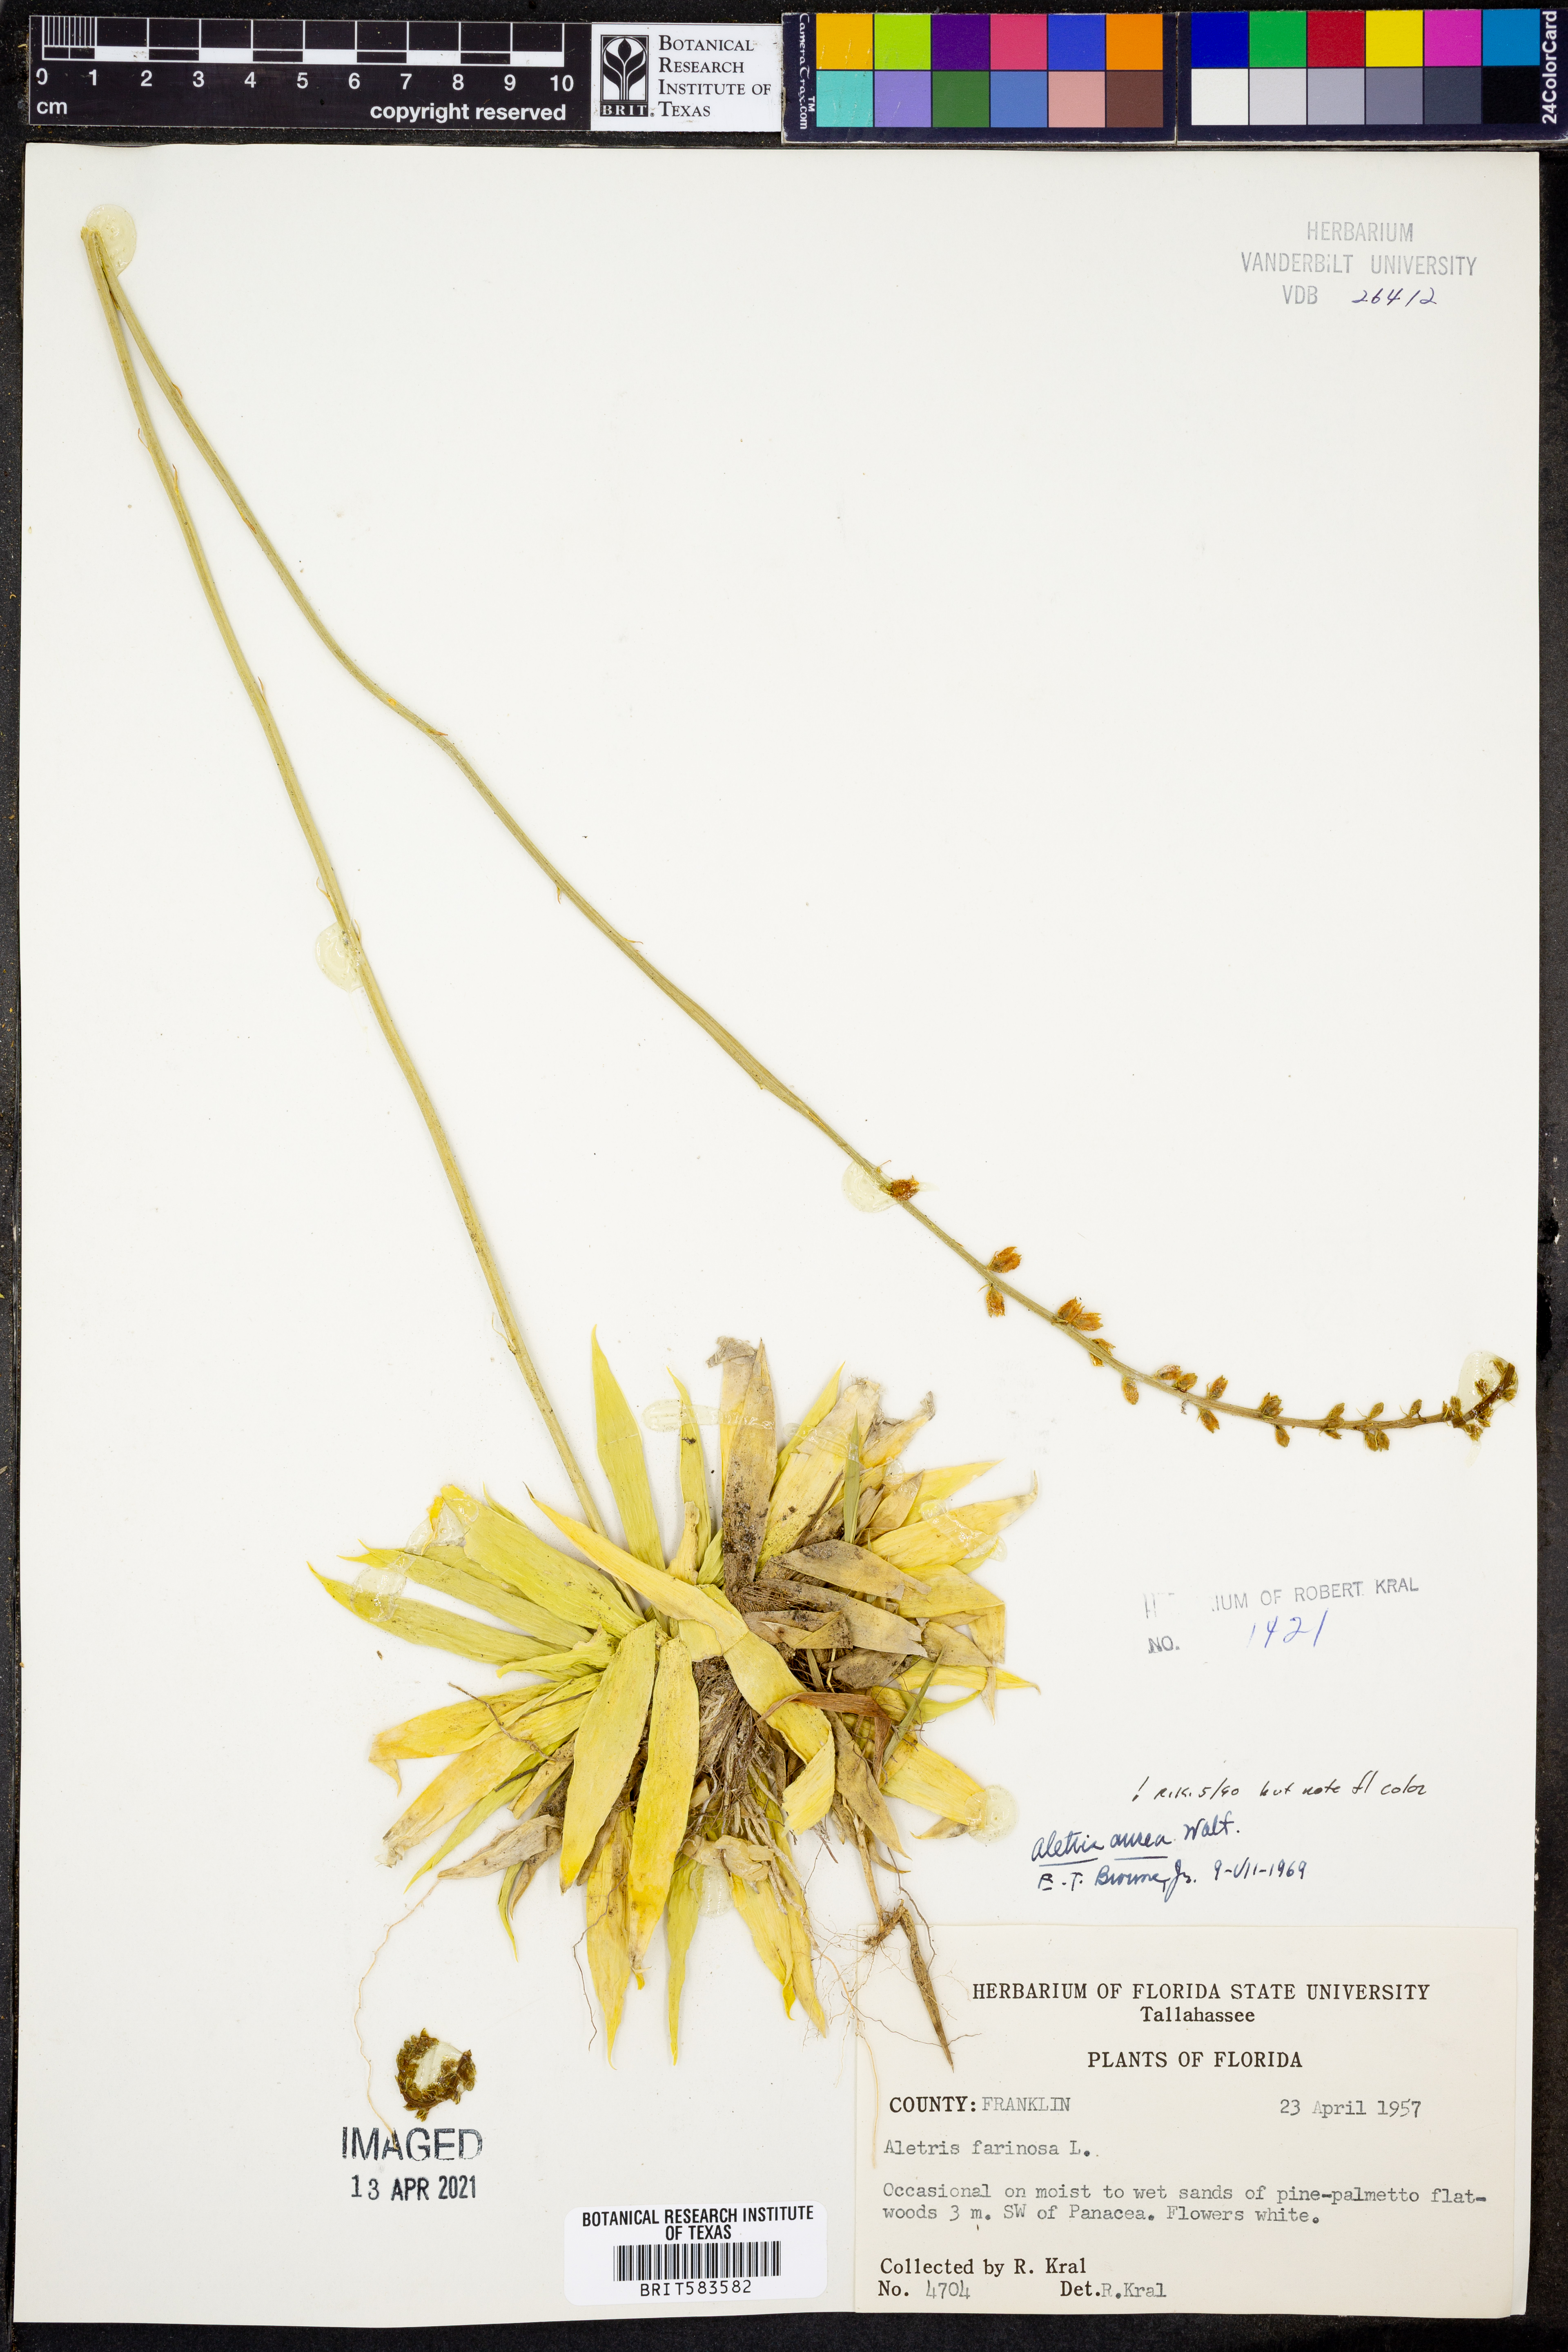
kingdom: Plantae
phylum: Tracheophyta
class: Liliopsida
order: Dioscoreales
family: Nartheciaceae
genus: Aletris
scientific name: Aletris aurea
